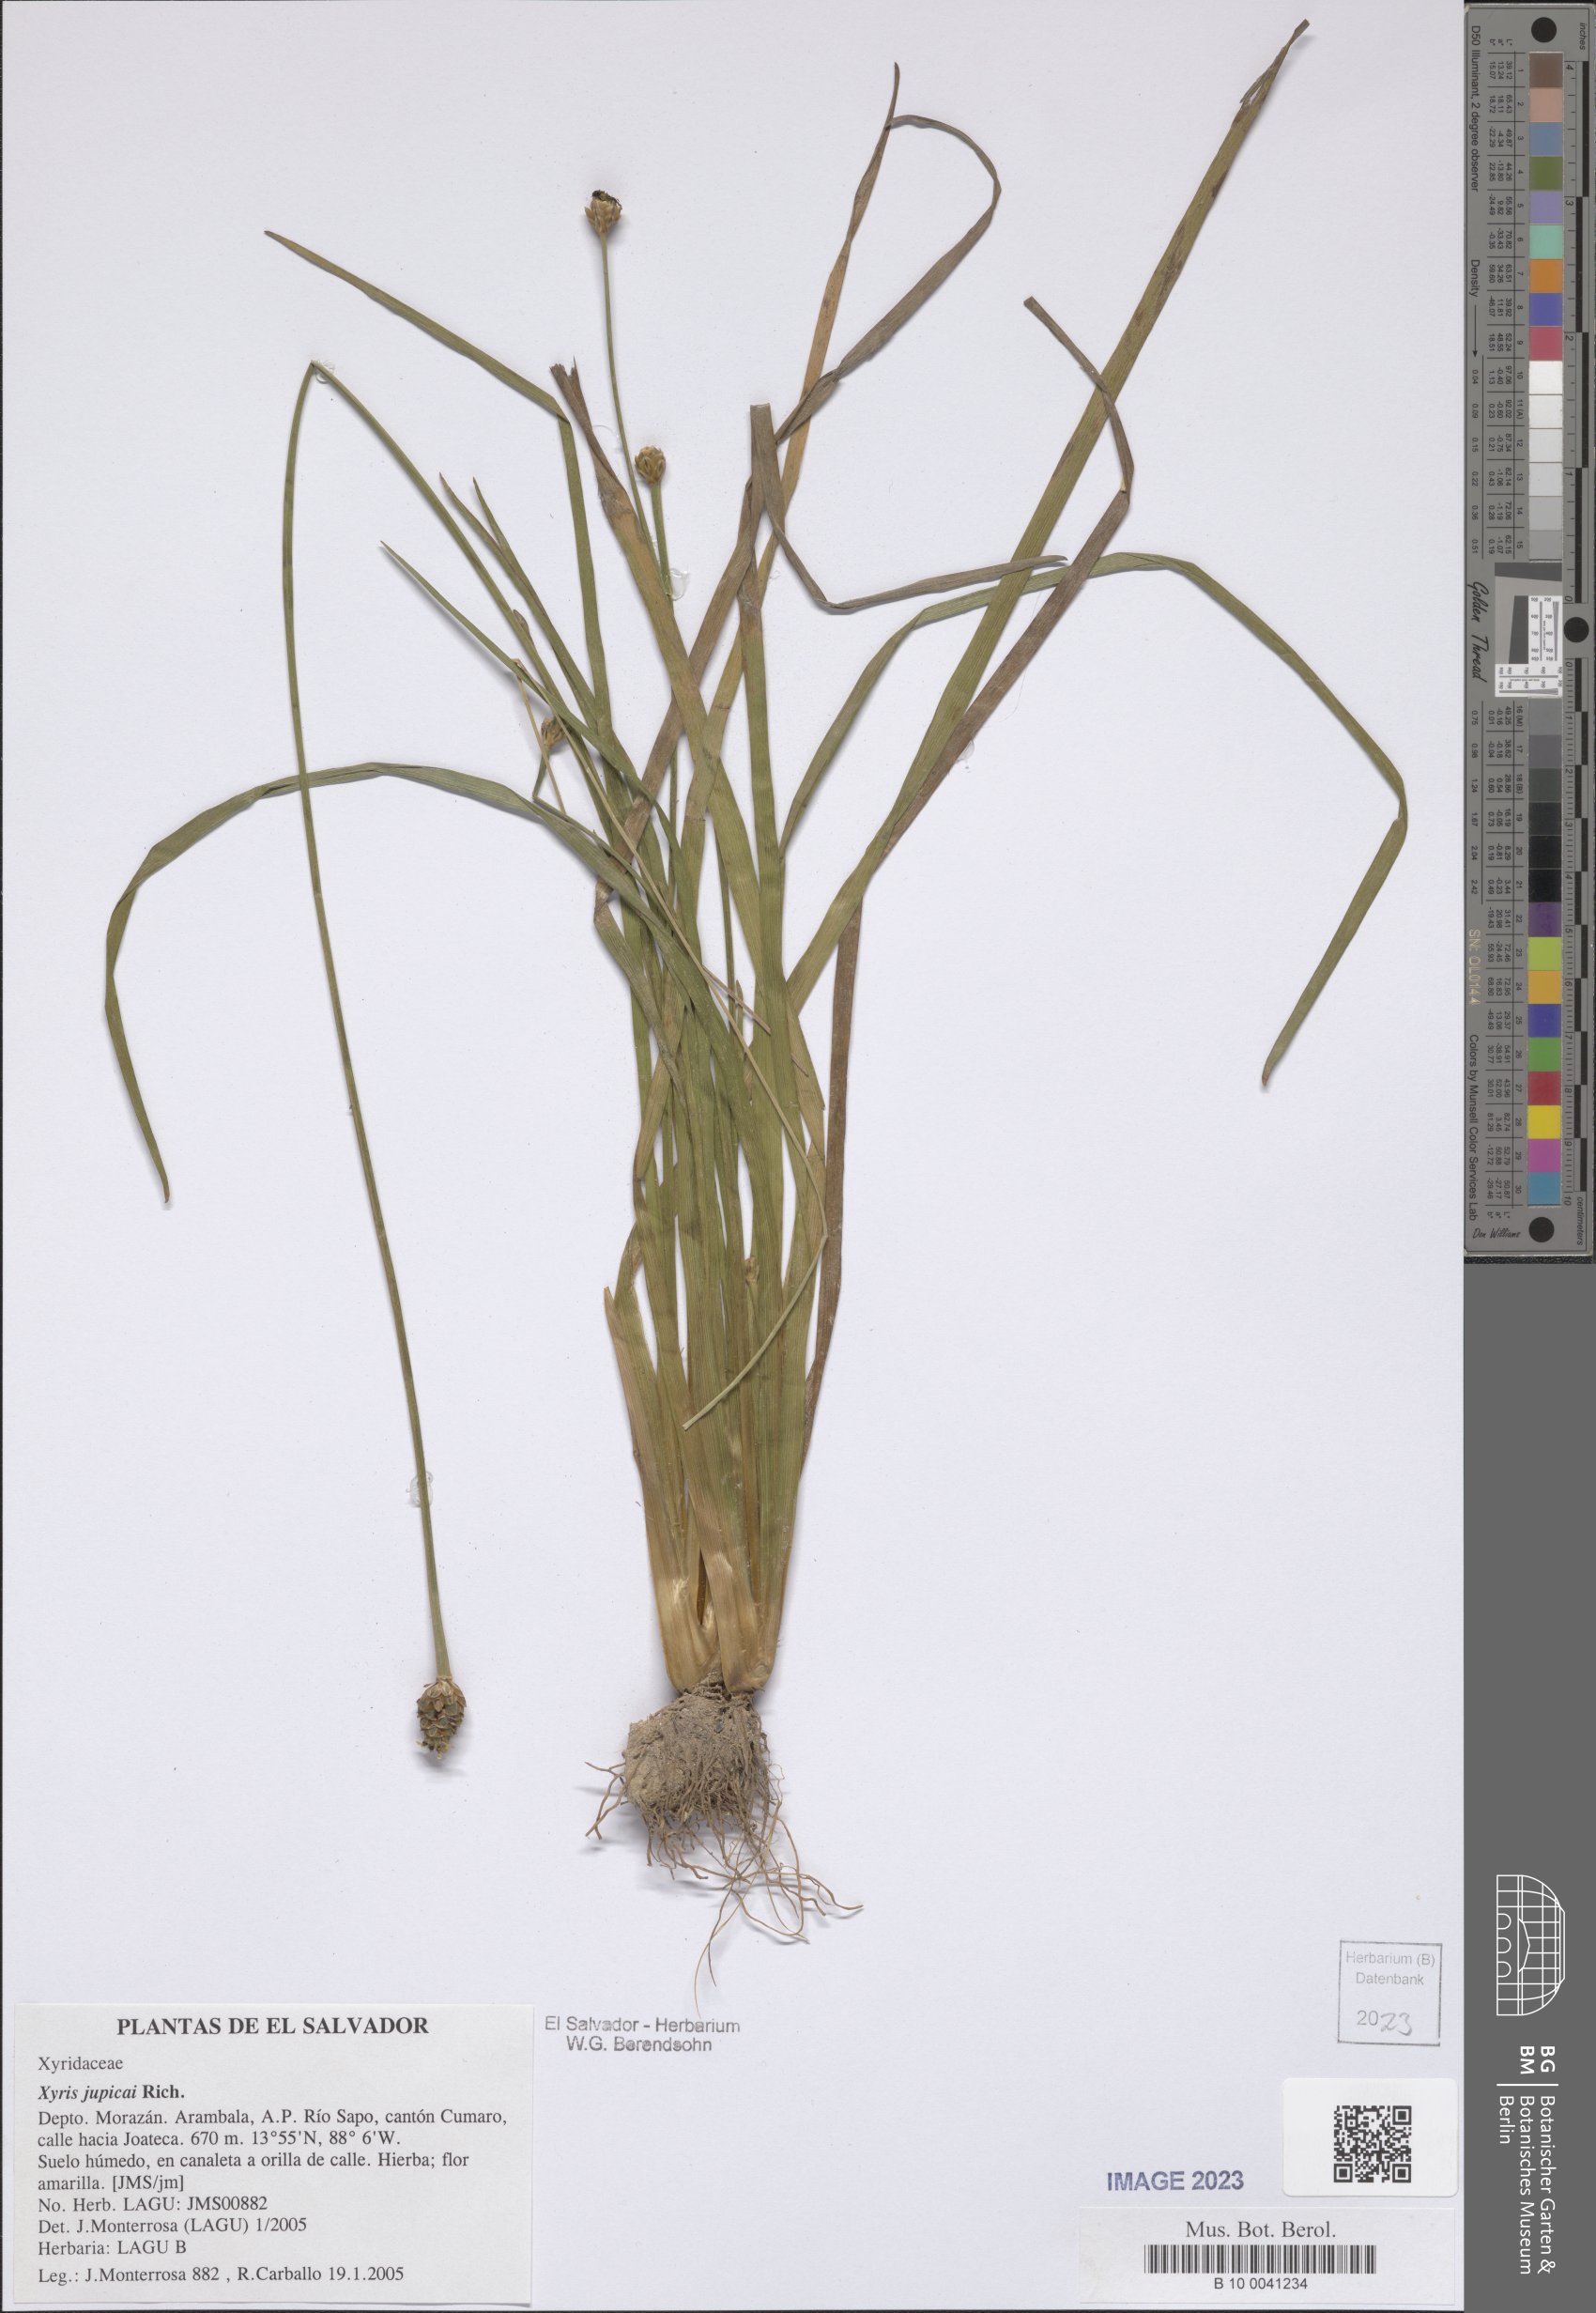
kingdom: Plantae
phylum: Tracheophyta
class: Liliopsida
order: Poales
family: Xyridaceae
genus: Xyris
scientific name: Xyris jupicai
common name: Richard's yelloweyed grass
